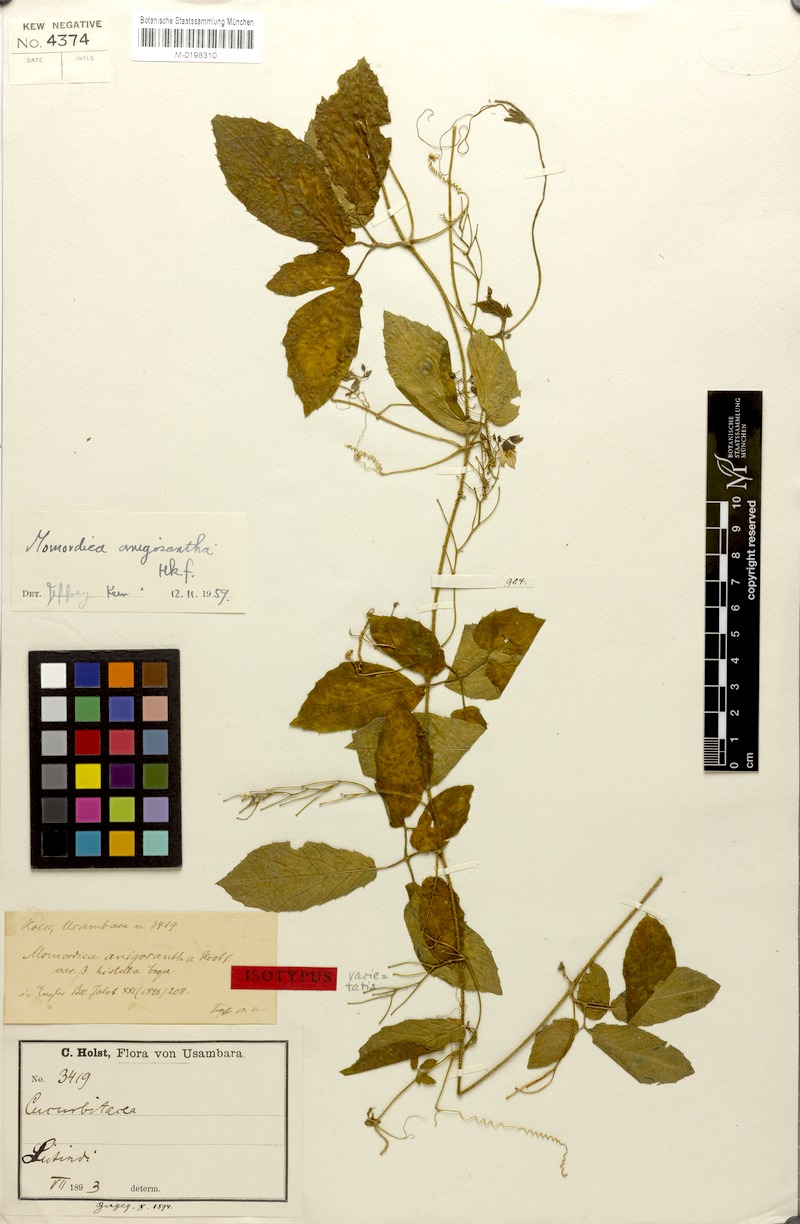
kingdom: Plantae
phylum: Tracheophyta
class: Magnoliopsida
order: Cucurbitales
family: Cucurbitaceae
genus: Momordica
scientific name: Momordica anigosantha
